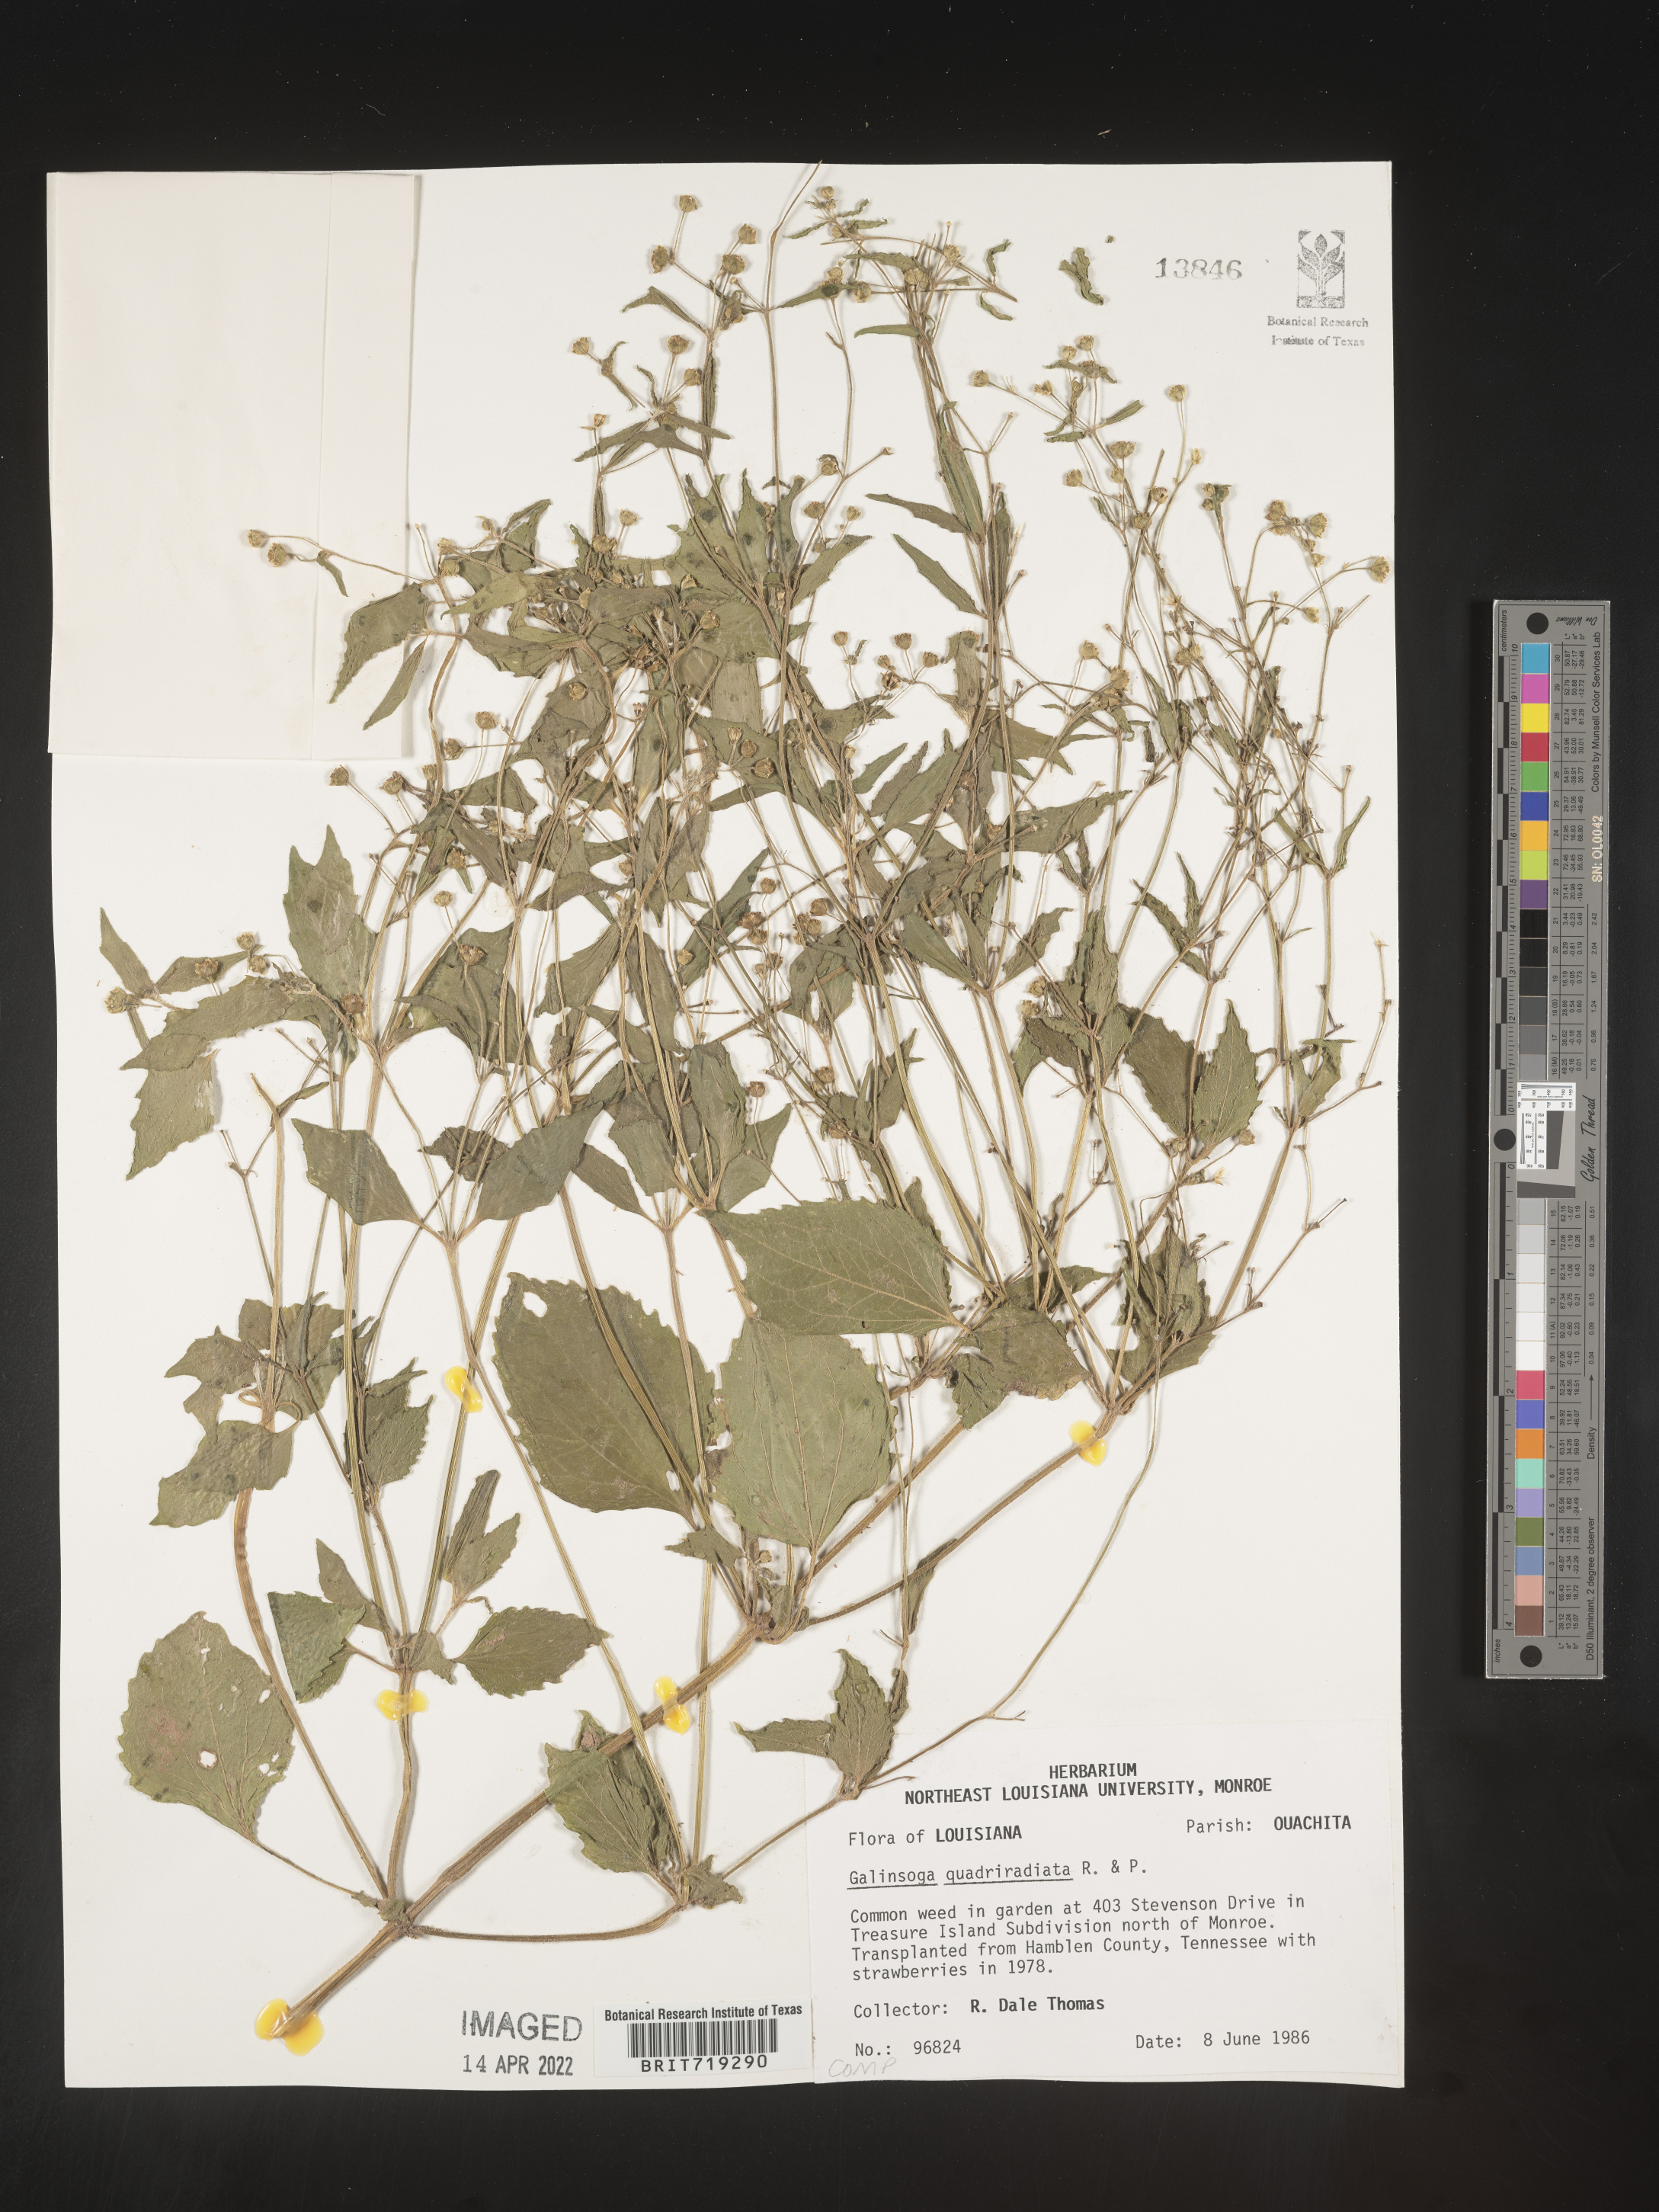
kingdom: Plantae
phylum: Tracheophyta
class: Magnoliopsida
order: Asterales
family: Asteraceae
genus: Galinsoga
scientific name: Galinsoga
